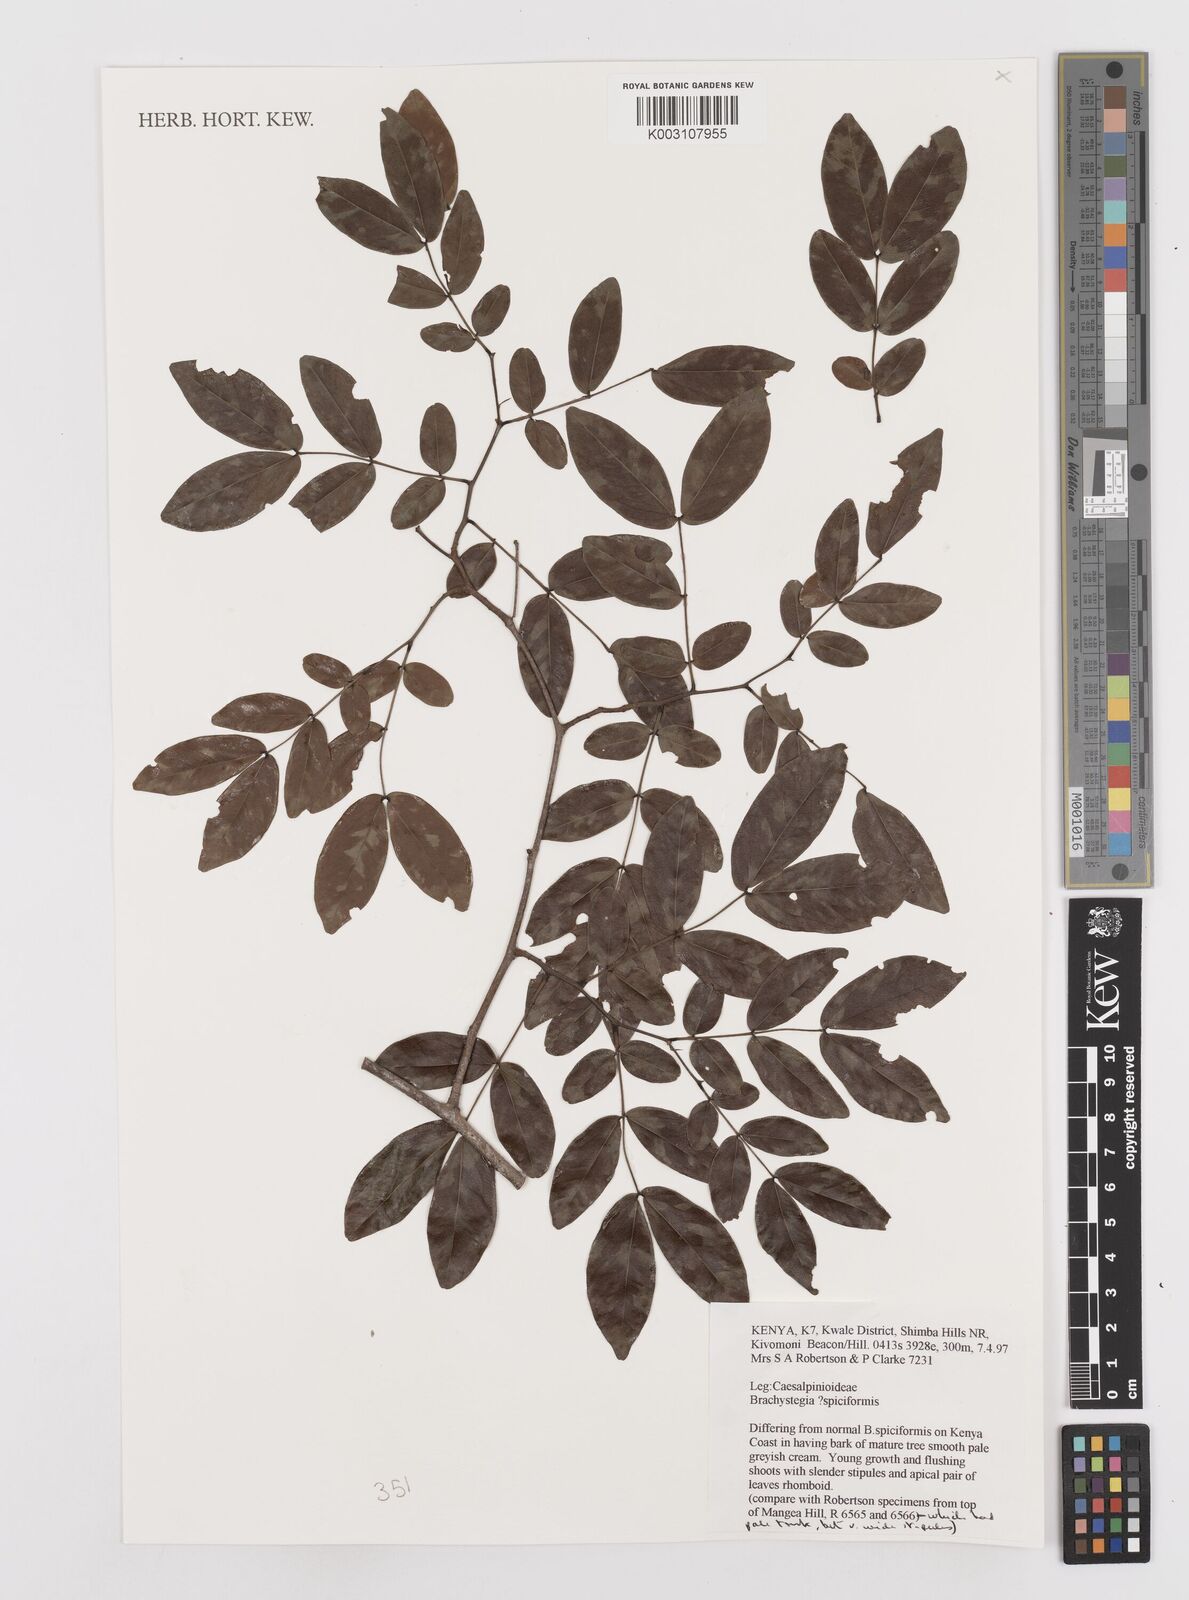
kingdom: Plantae
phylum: Tracheophyta
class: Magnoliopsida
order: Fabales
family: Fabaceae
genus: Brachystegia
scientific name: Brachystegia spiciformis
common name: Zebrawood
